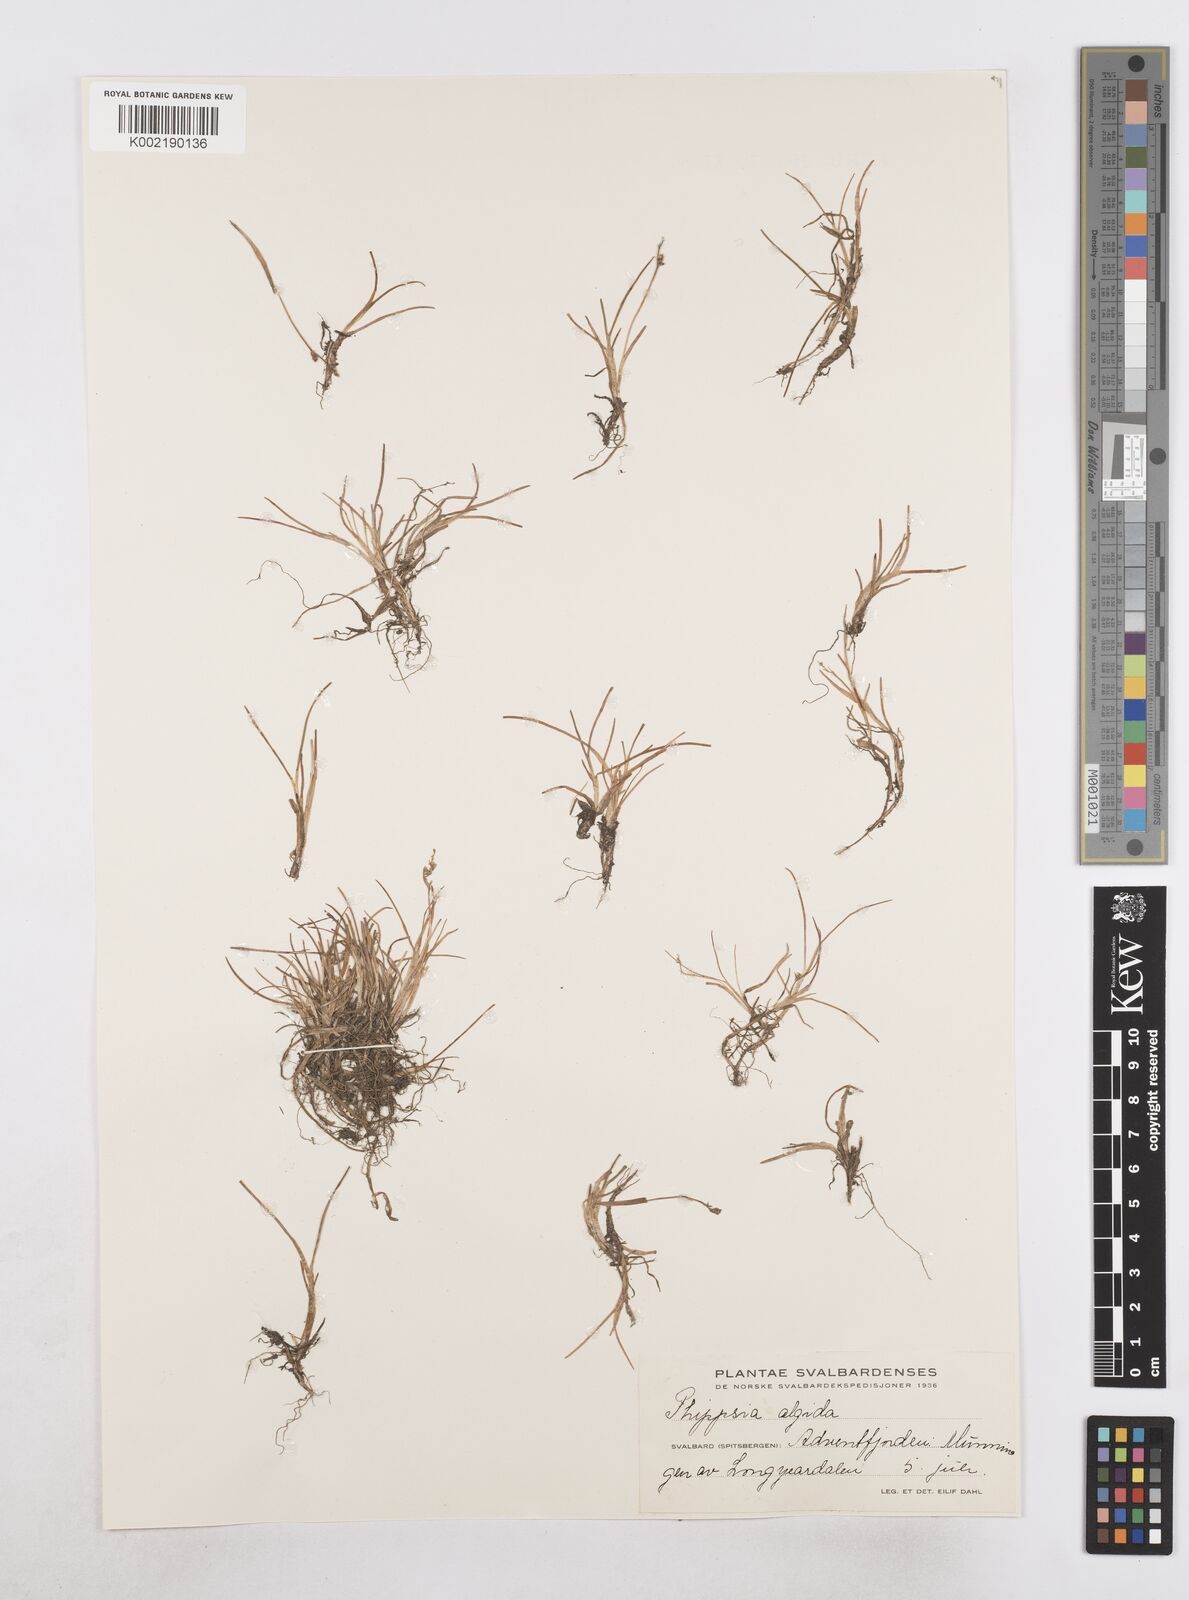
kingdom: Plantae
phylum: Tracheophyta
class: Liliopsida
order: Poales
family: Poaceae
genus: Phippsia
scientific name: Phippsia algida
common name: Ice grass
